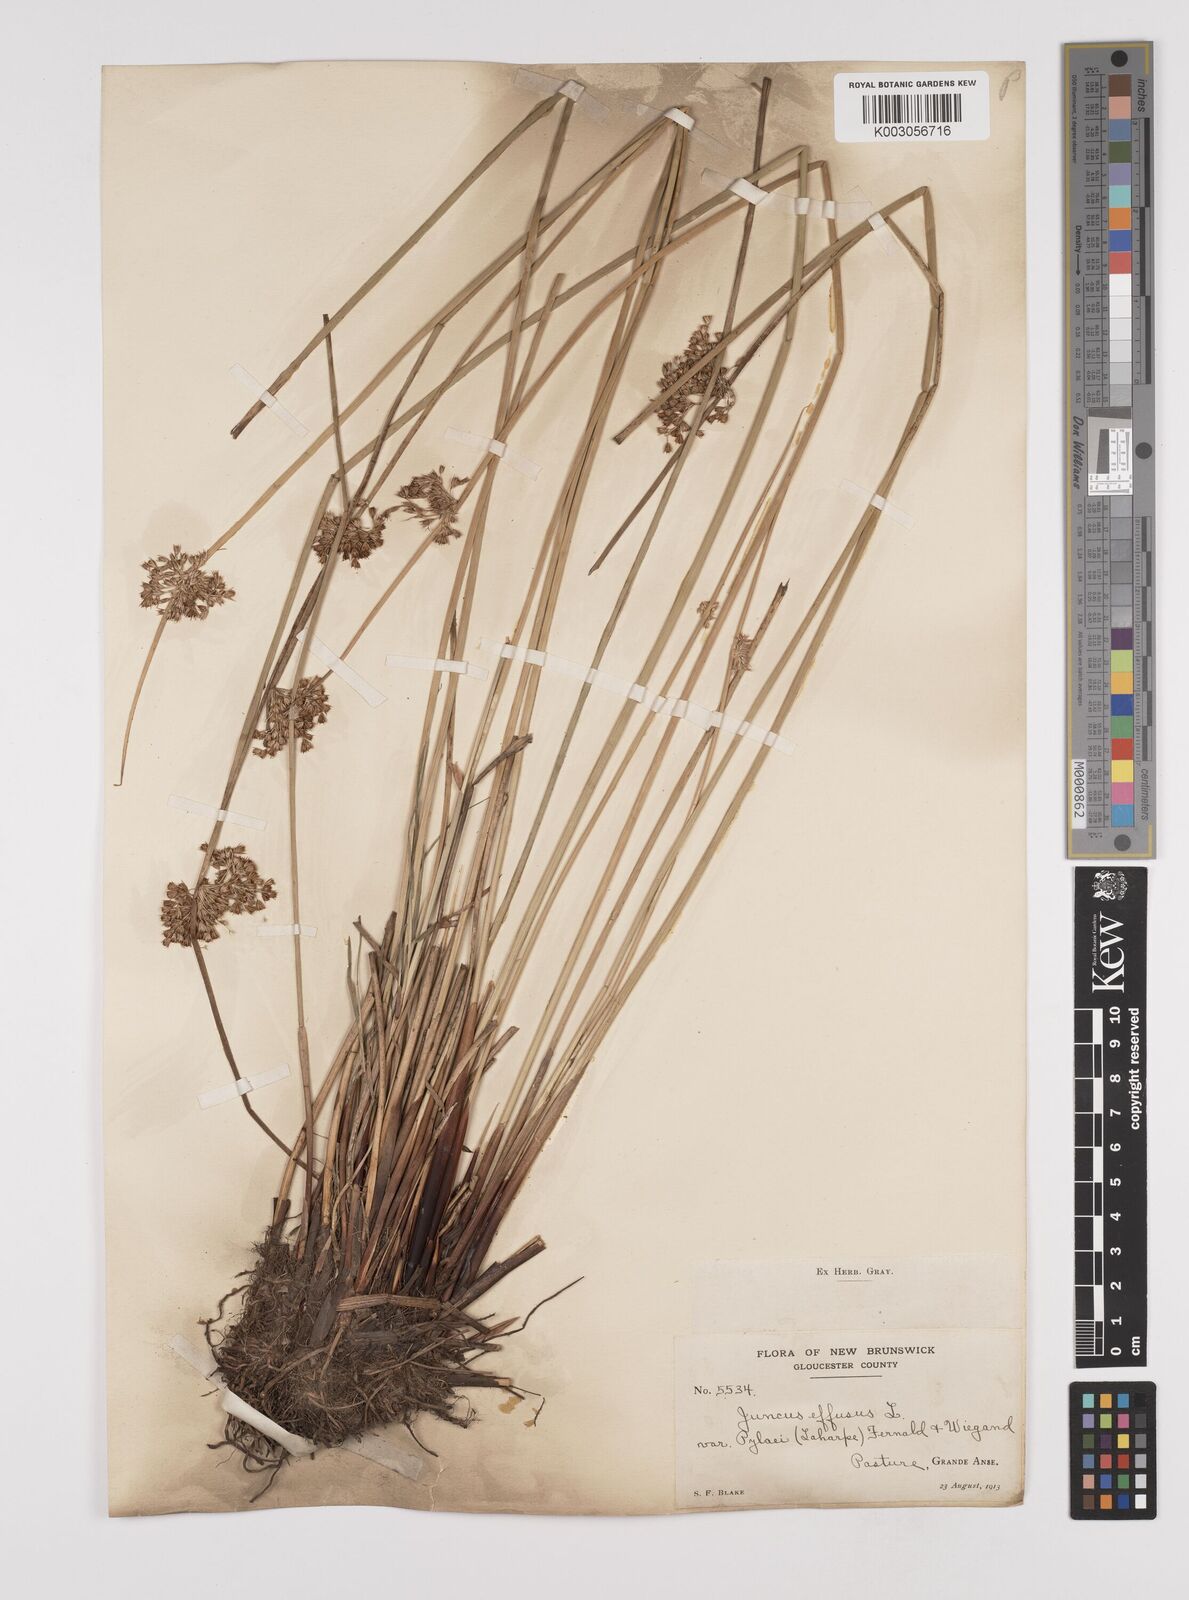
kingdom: Plantae
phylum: Tracheophyta
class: Liliopsida
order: Poales
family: Juncaceae
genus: Juncus
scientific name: Juncus pylaei
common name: Common rush
